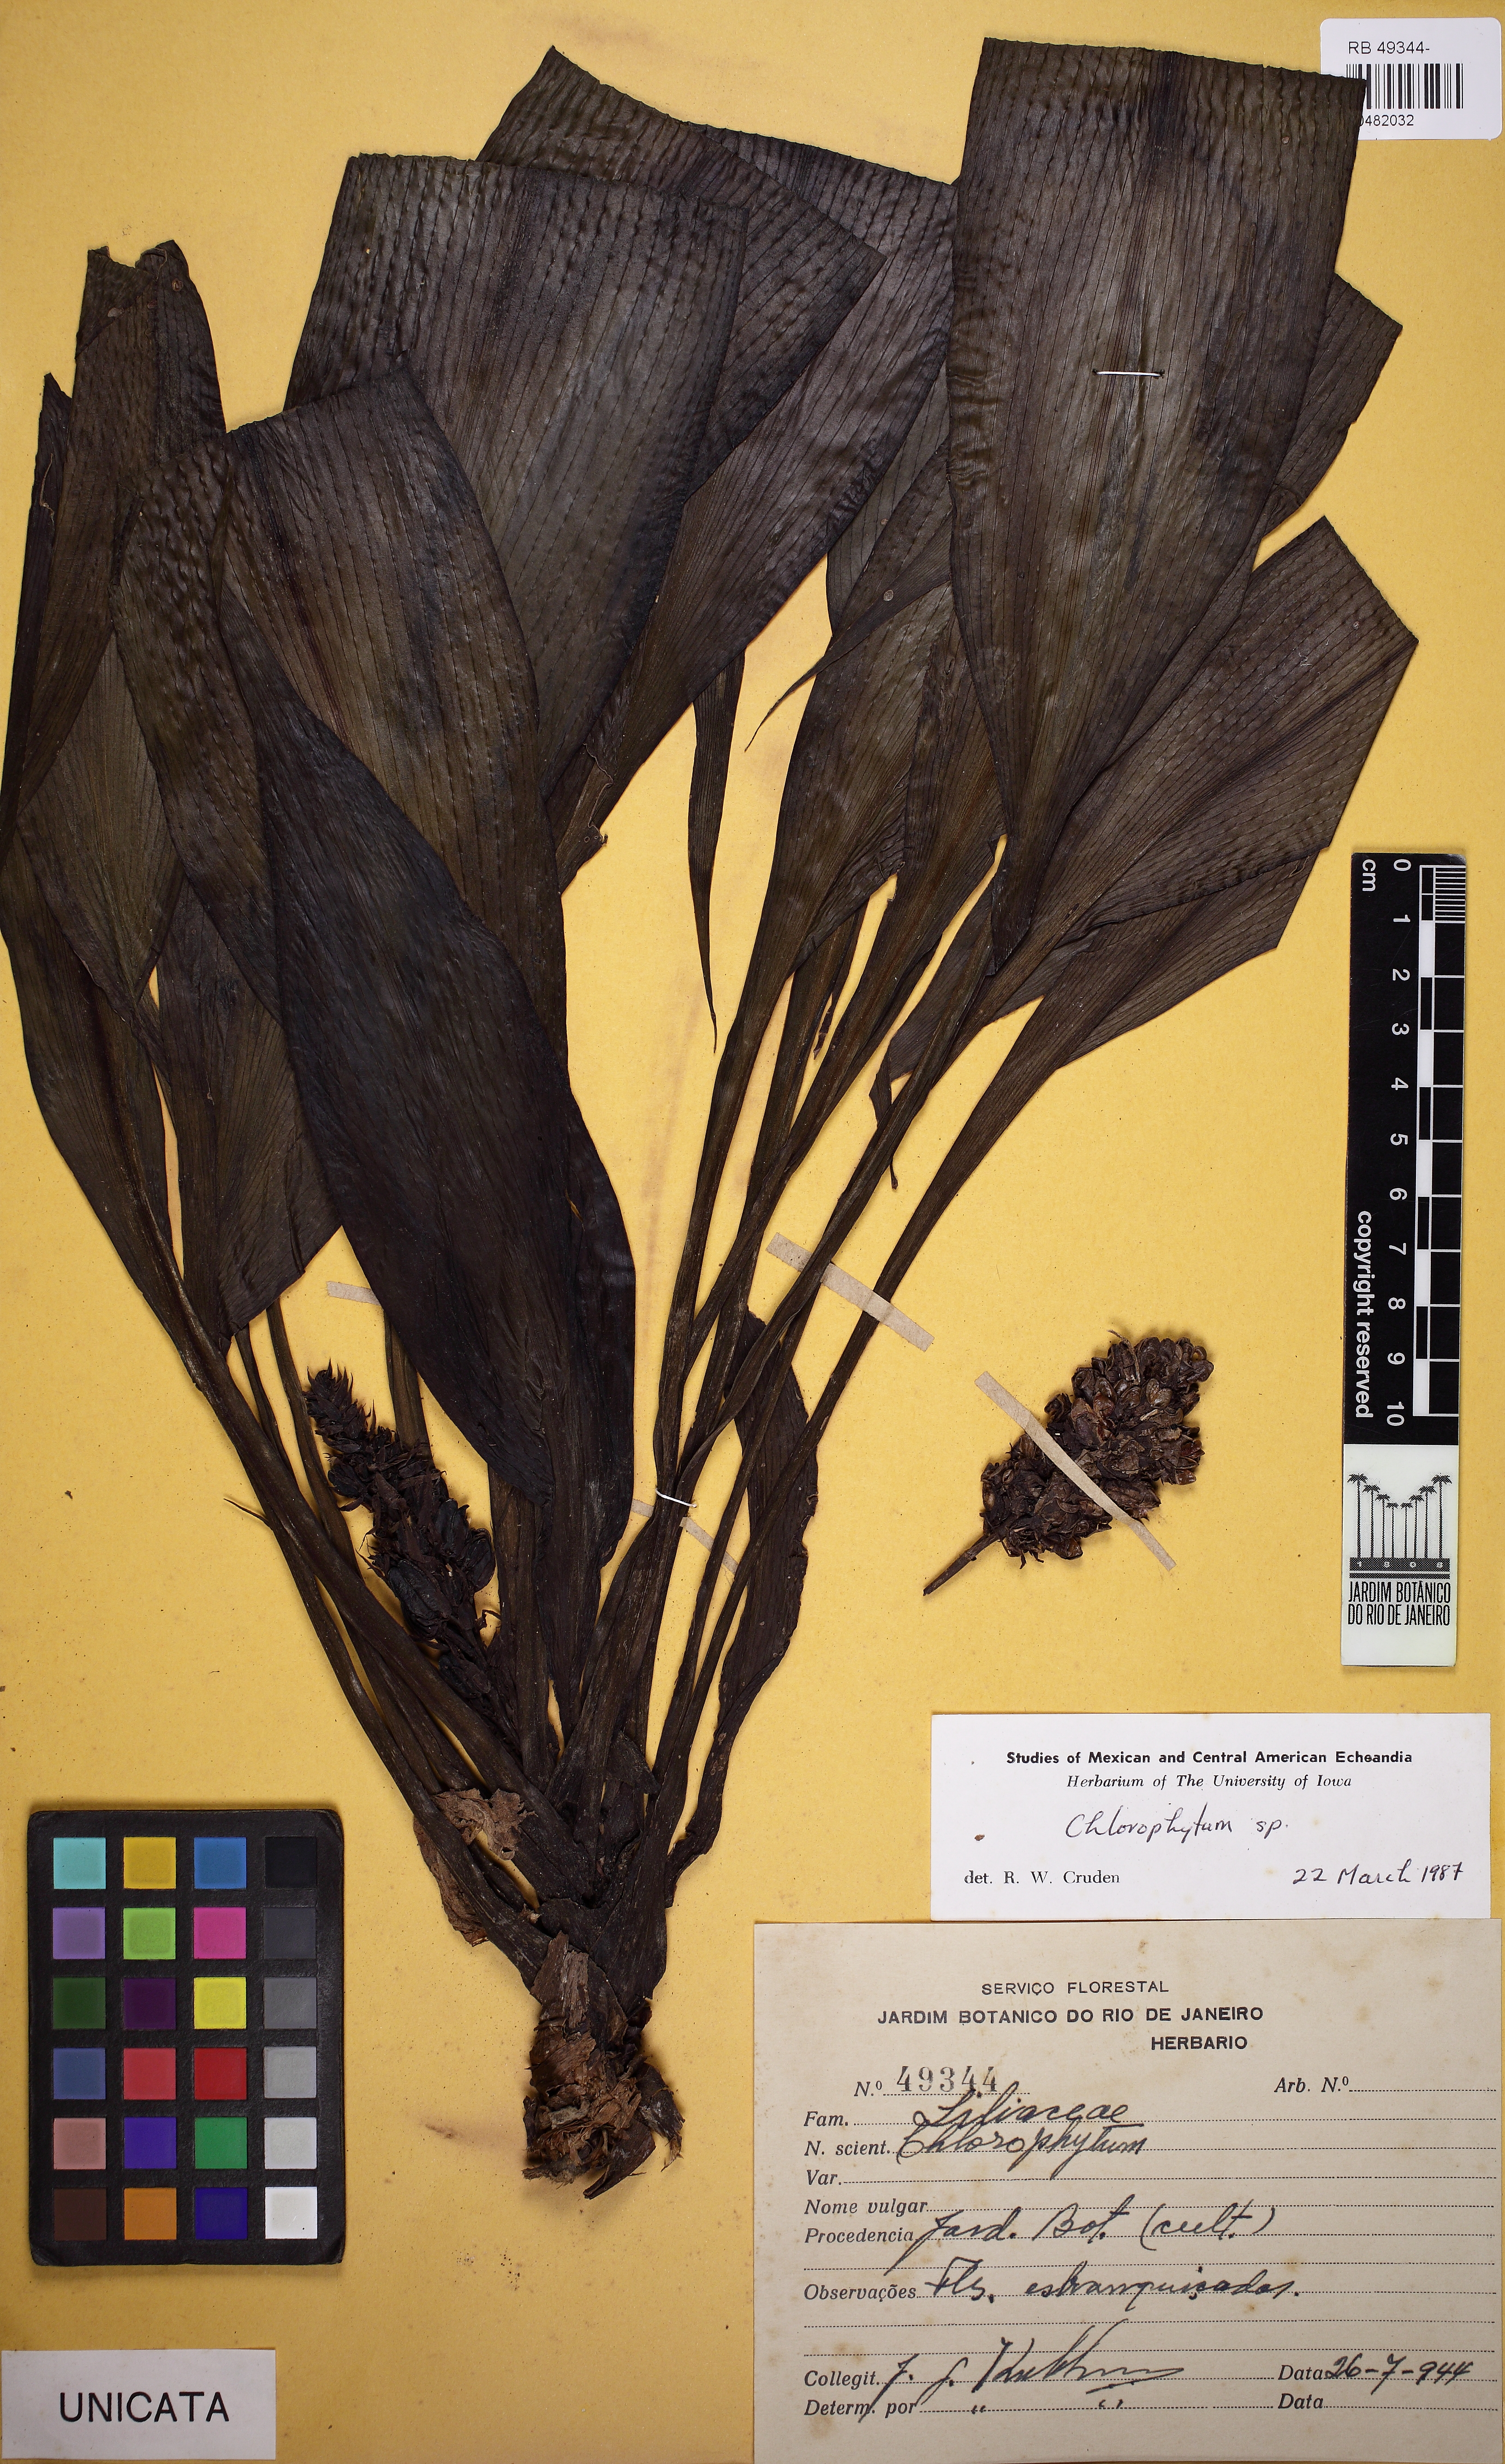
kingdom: Plantae
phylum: Tracheophyta
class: Liliopsida
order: Asparagales
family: Asparagaceae
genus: Chlorophytum
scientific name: Chlorophytum
